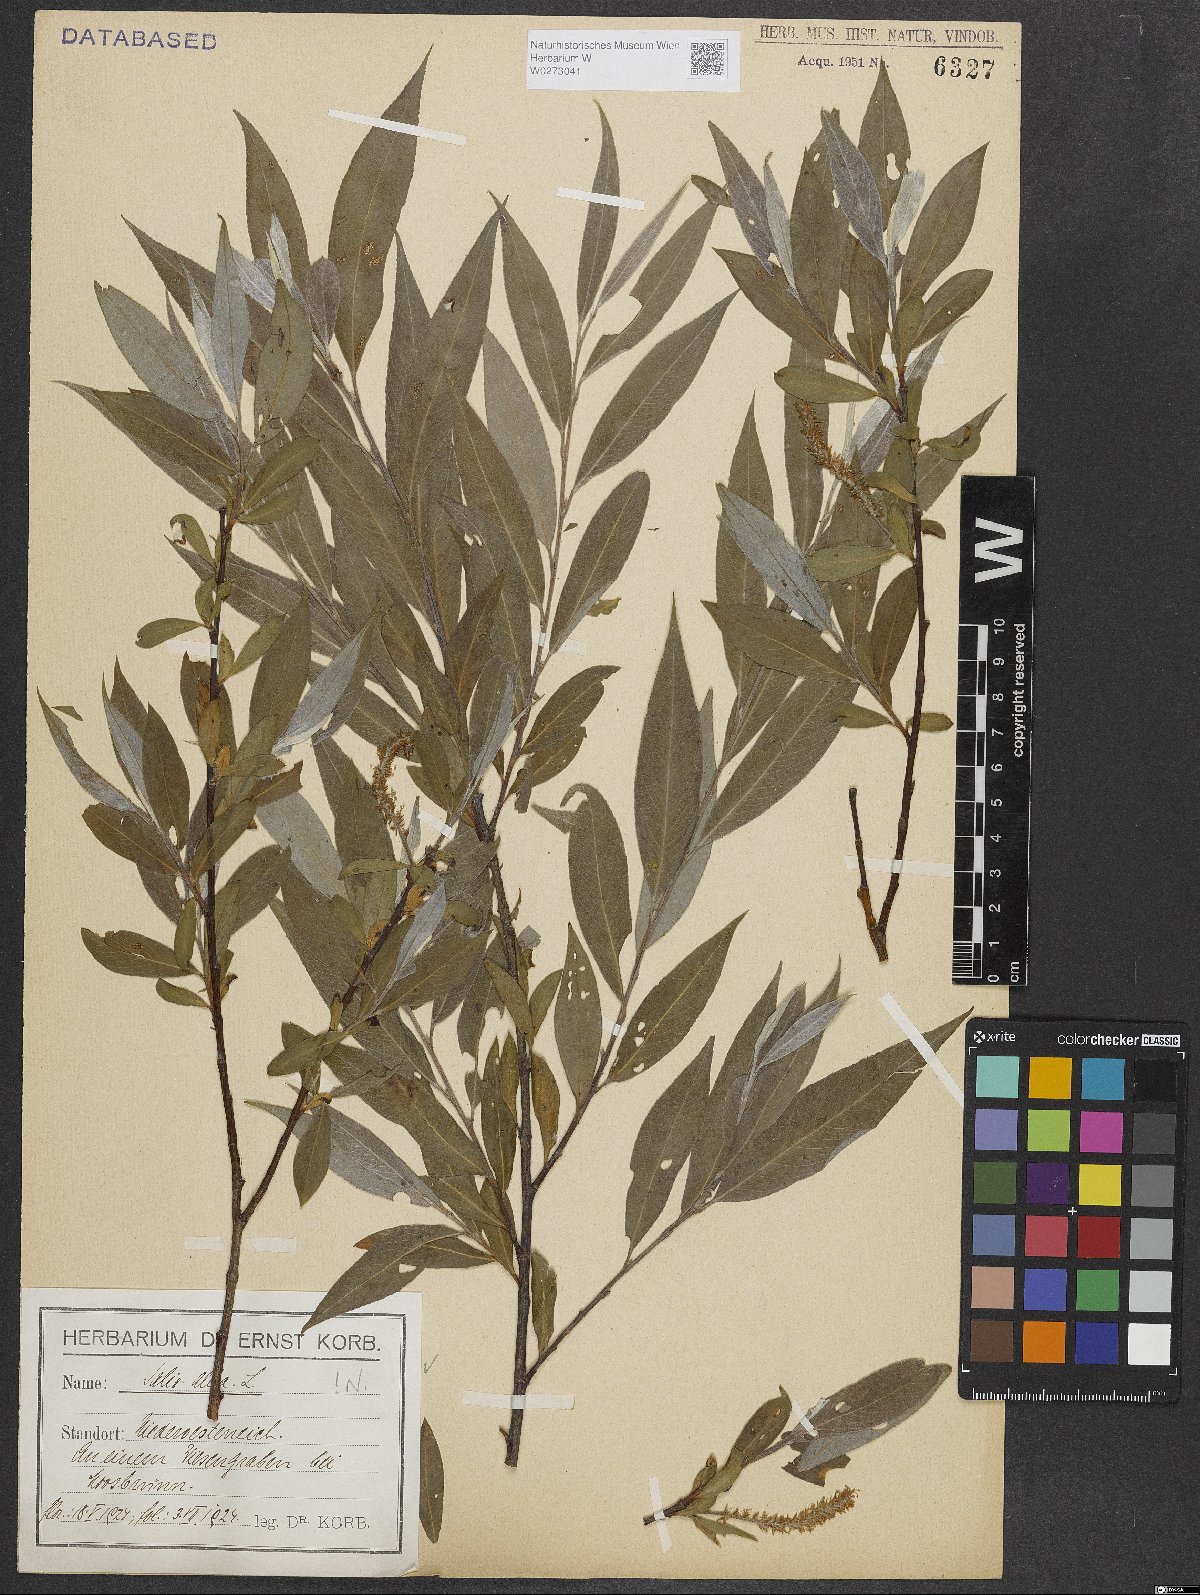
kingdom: Plantae
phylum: Tracheophyta
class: Magnoliopsida
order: Malpighiales
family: Salicaceae
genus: Salix
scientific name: Salix alba
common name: White willow
